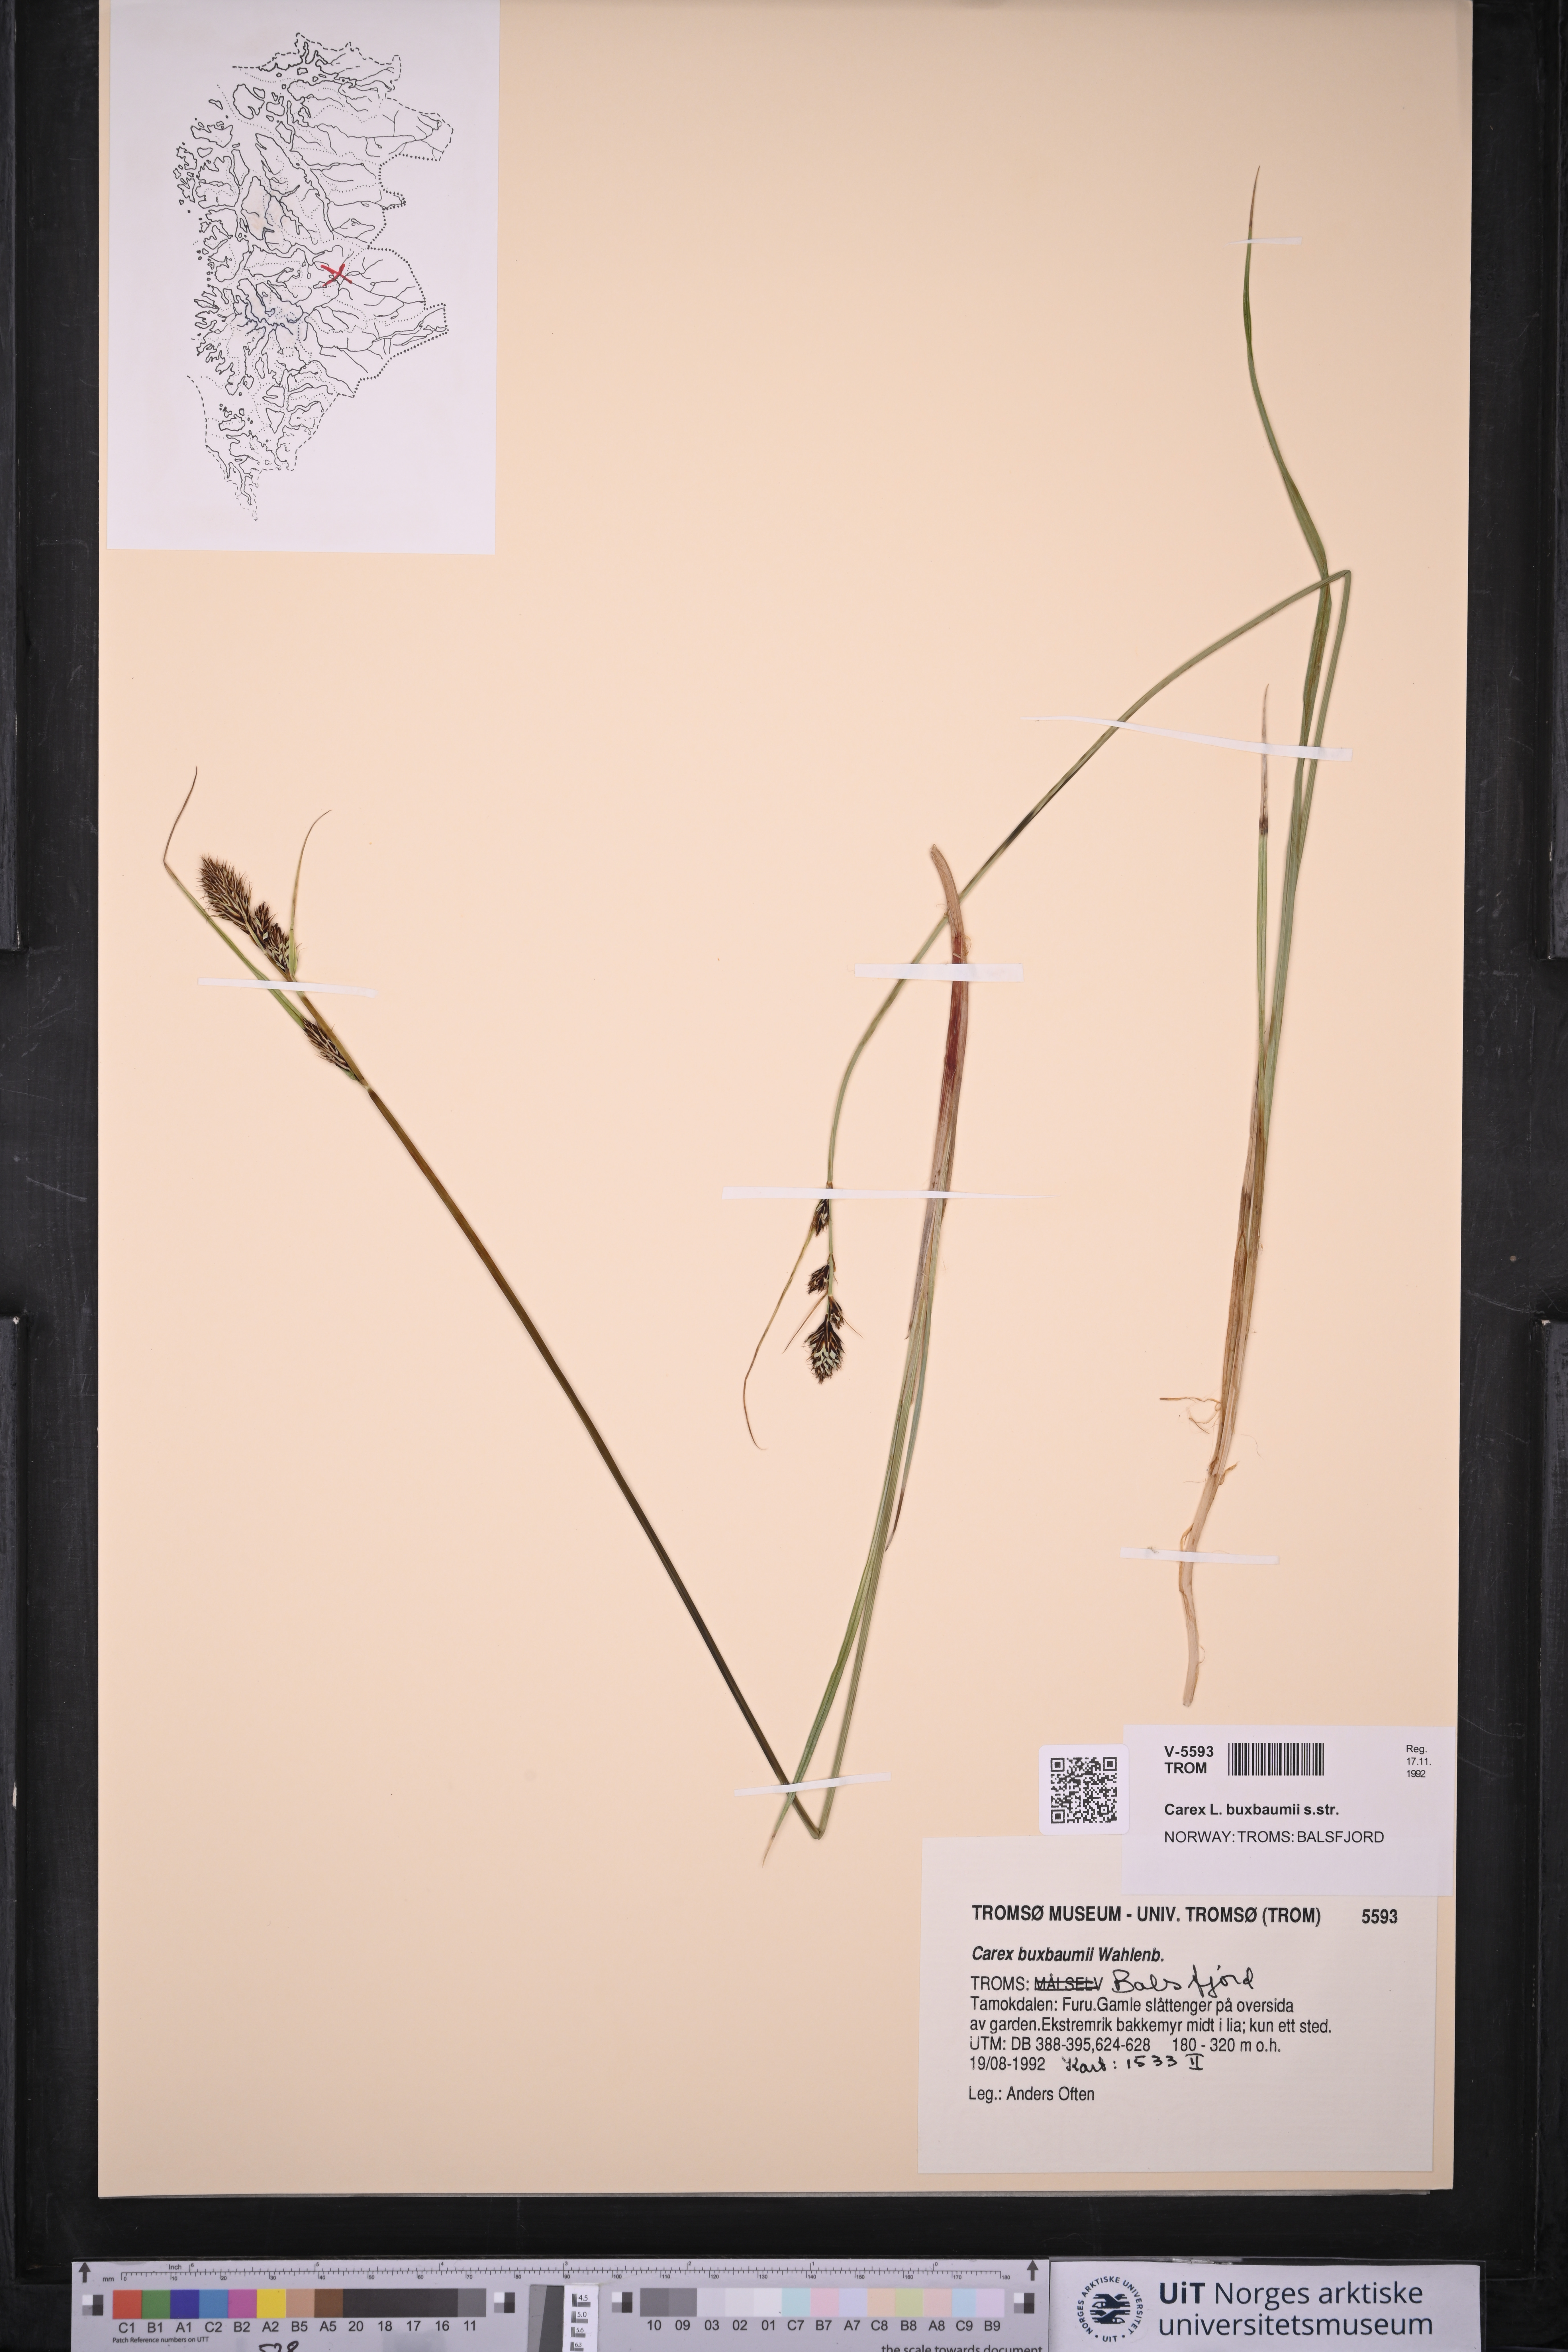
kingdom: Plantae
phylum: Tracheophyta
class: Liliopsida
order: Poales
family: Cyperaceae
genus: Carex
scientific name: Carex buxbaumii
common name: Club sedge
